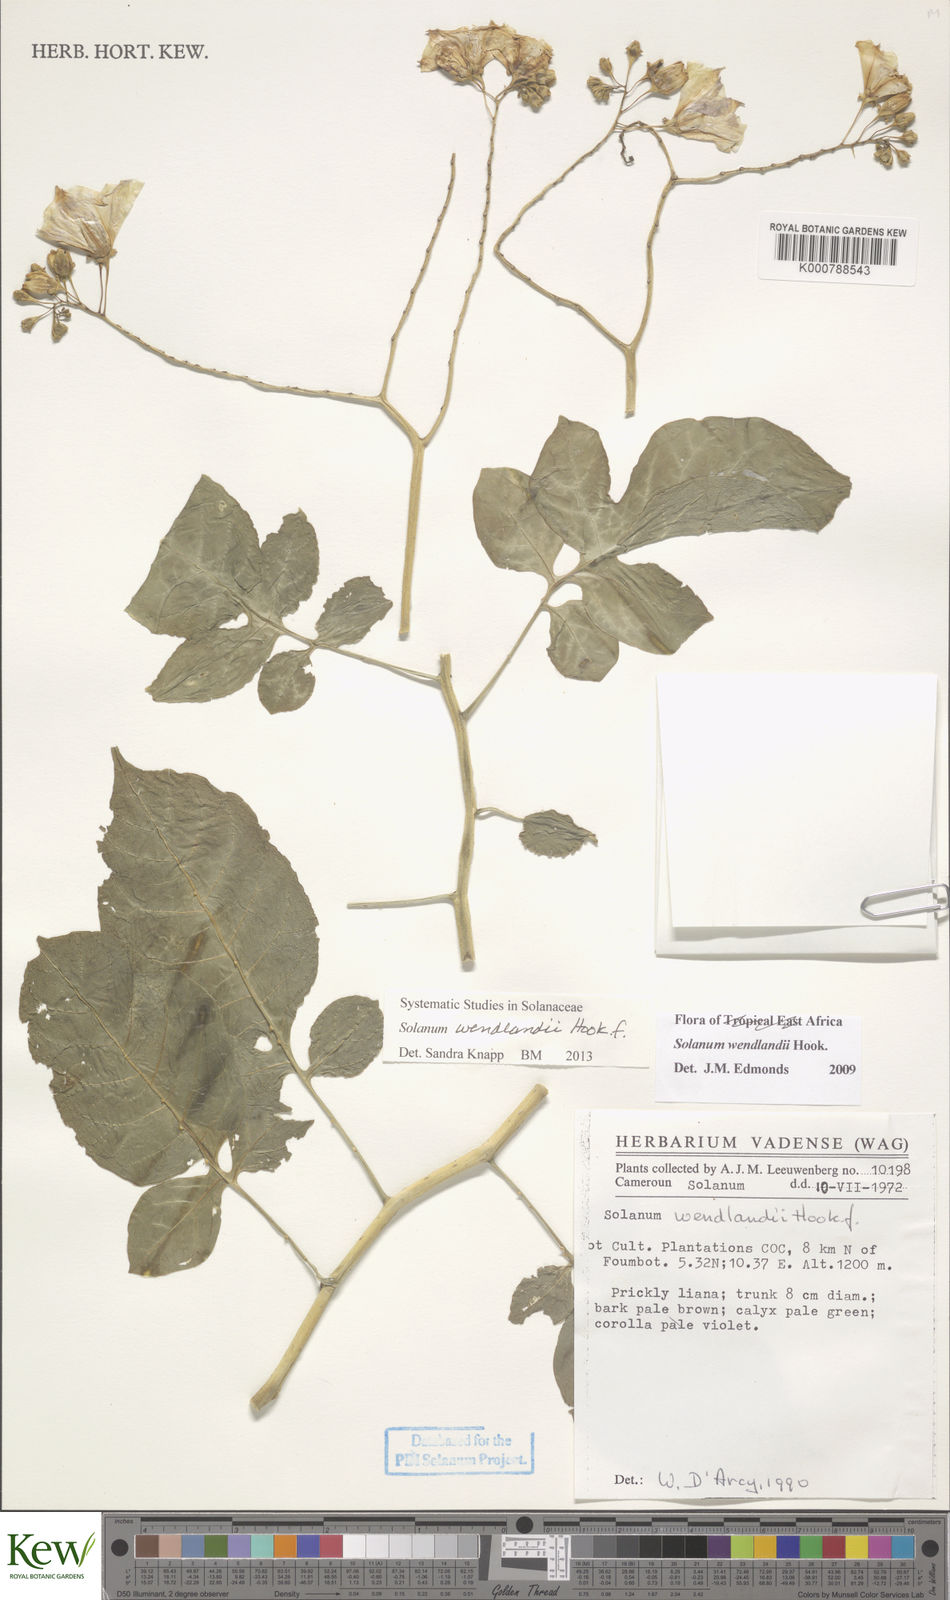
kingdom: Plantae
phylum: Tracheophyta
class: Magnoliopsida
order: Solanales
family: Solanaceae
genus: Solanum
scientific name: Solanum wendlandii
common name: Costa rican nightshade
